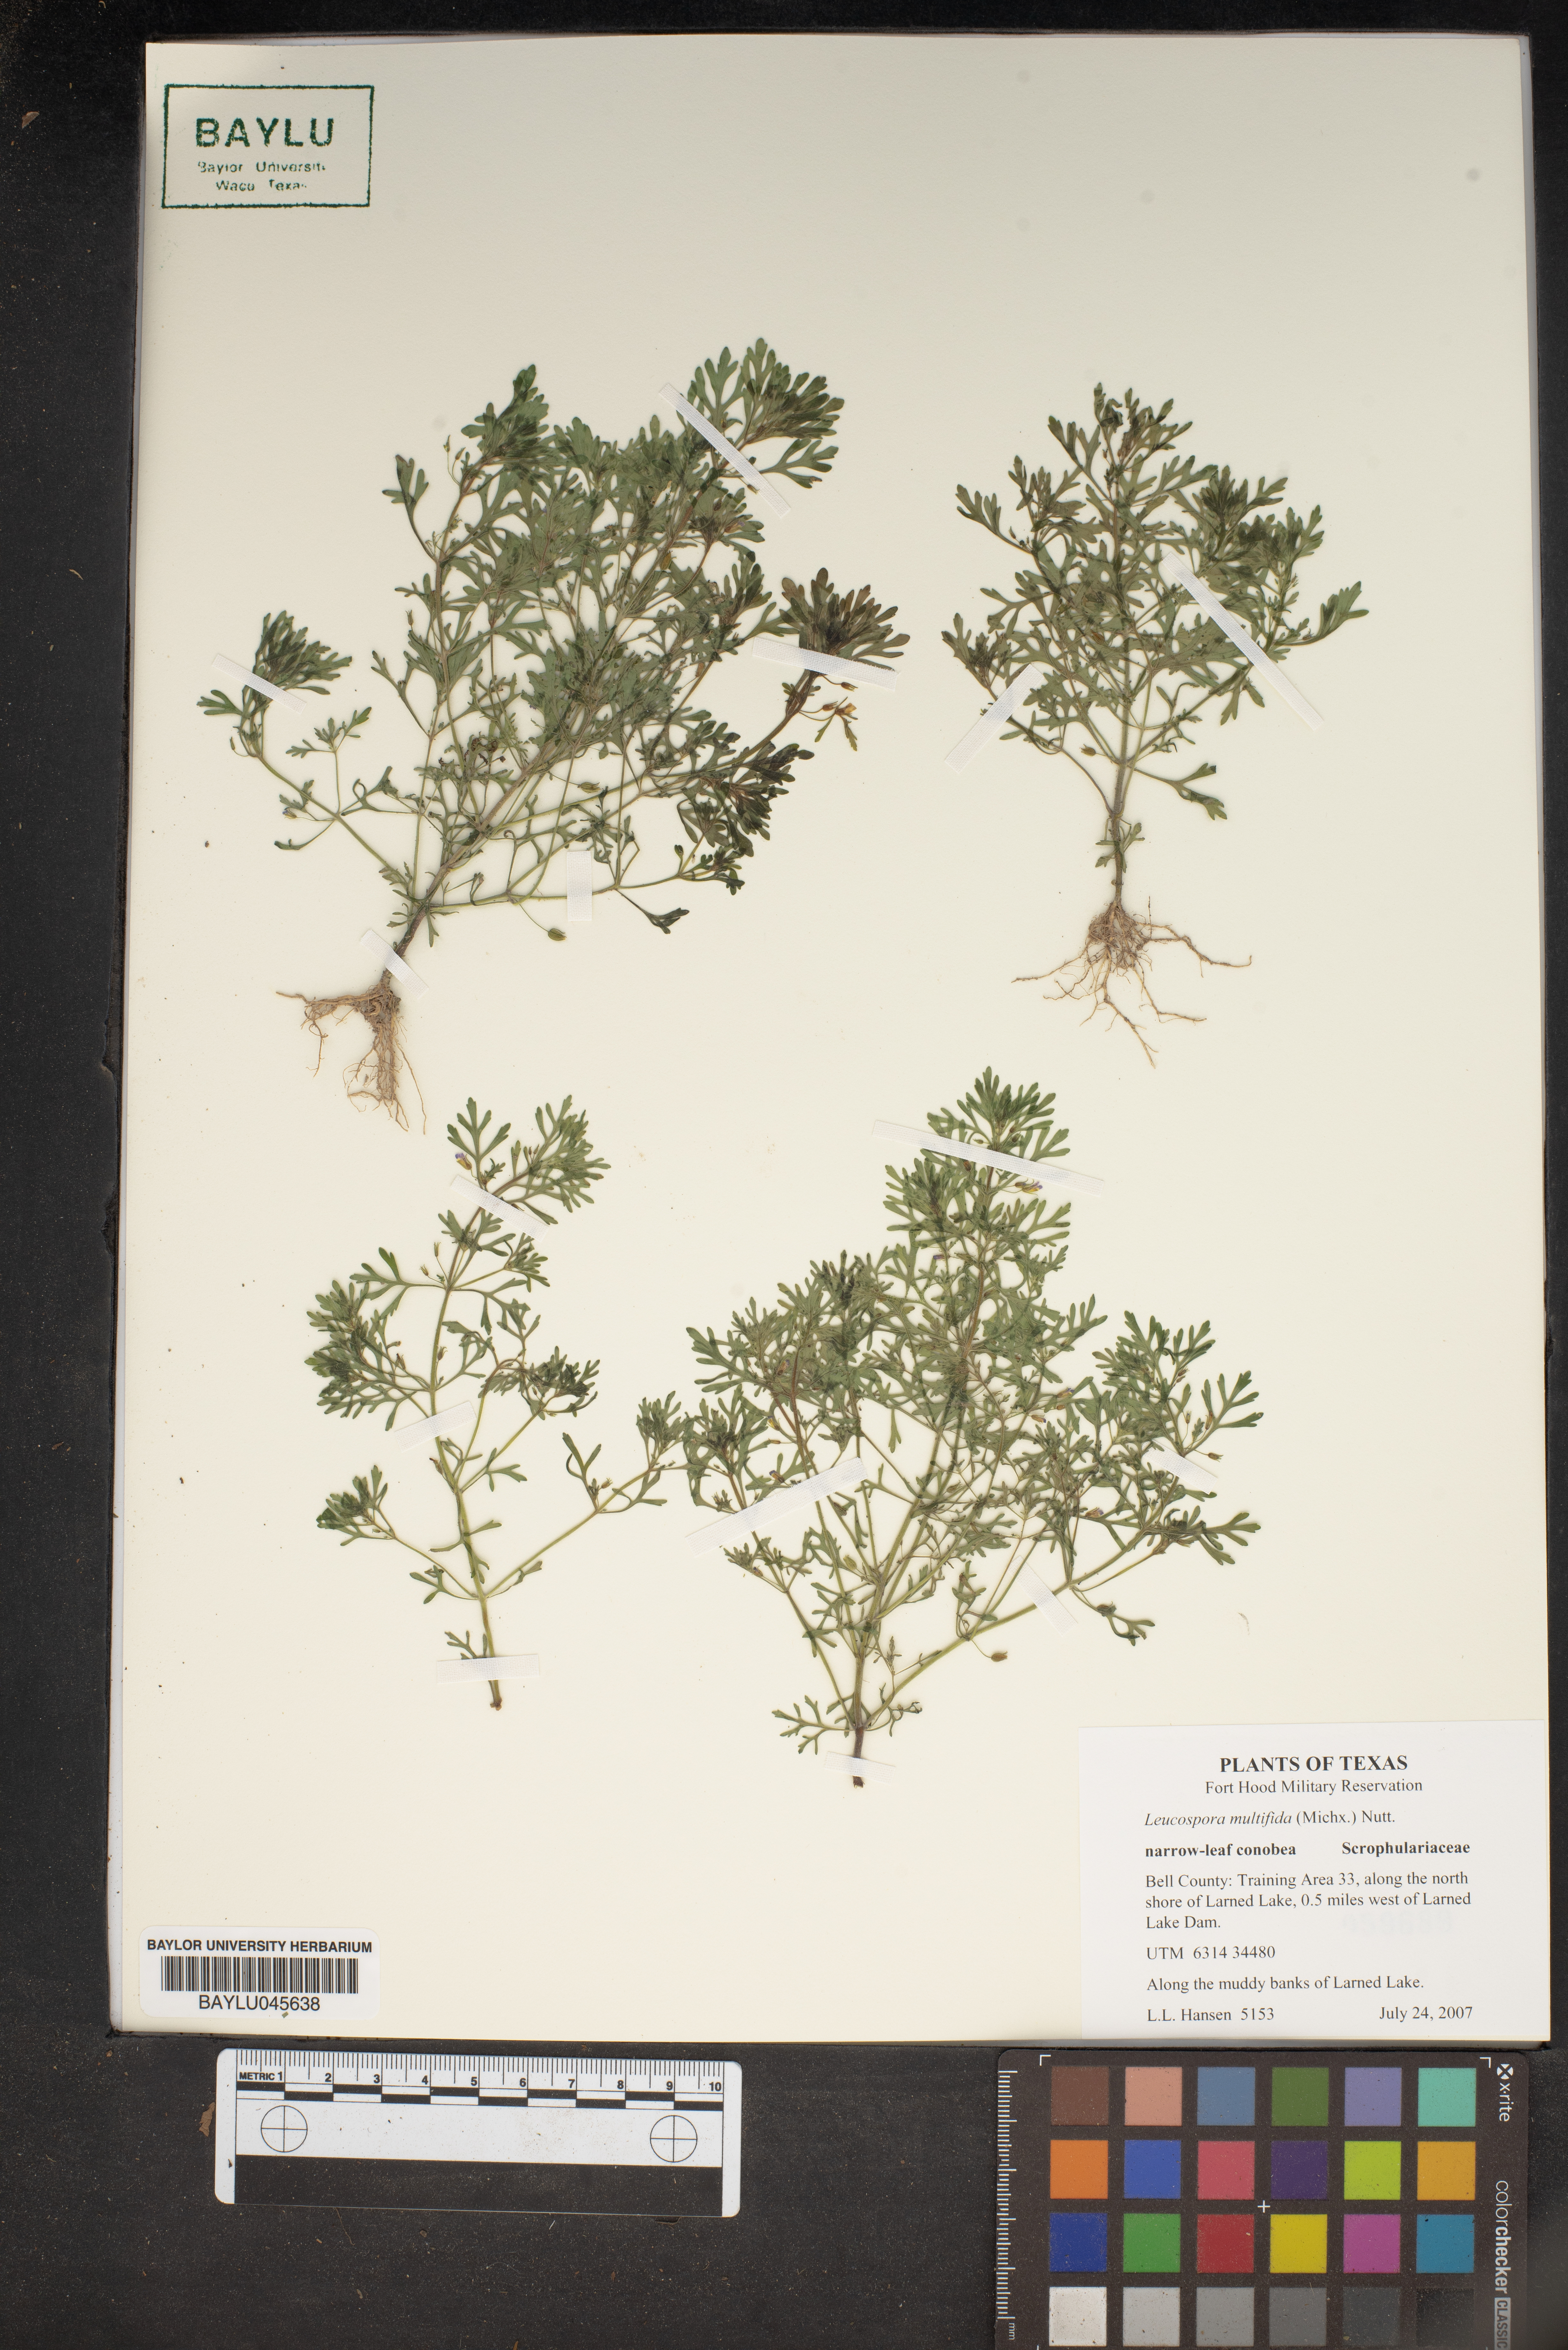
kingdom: Plantae
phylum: Tracheophyta
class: Magnoliopsida
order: Lamiales
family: Plantaginaceae
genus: Leucospora
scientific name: Leucospora multifida
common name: Narrow-leaf paleseed
